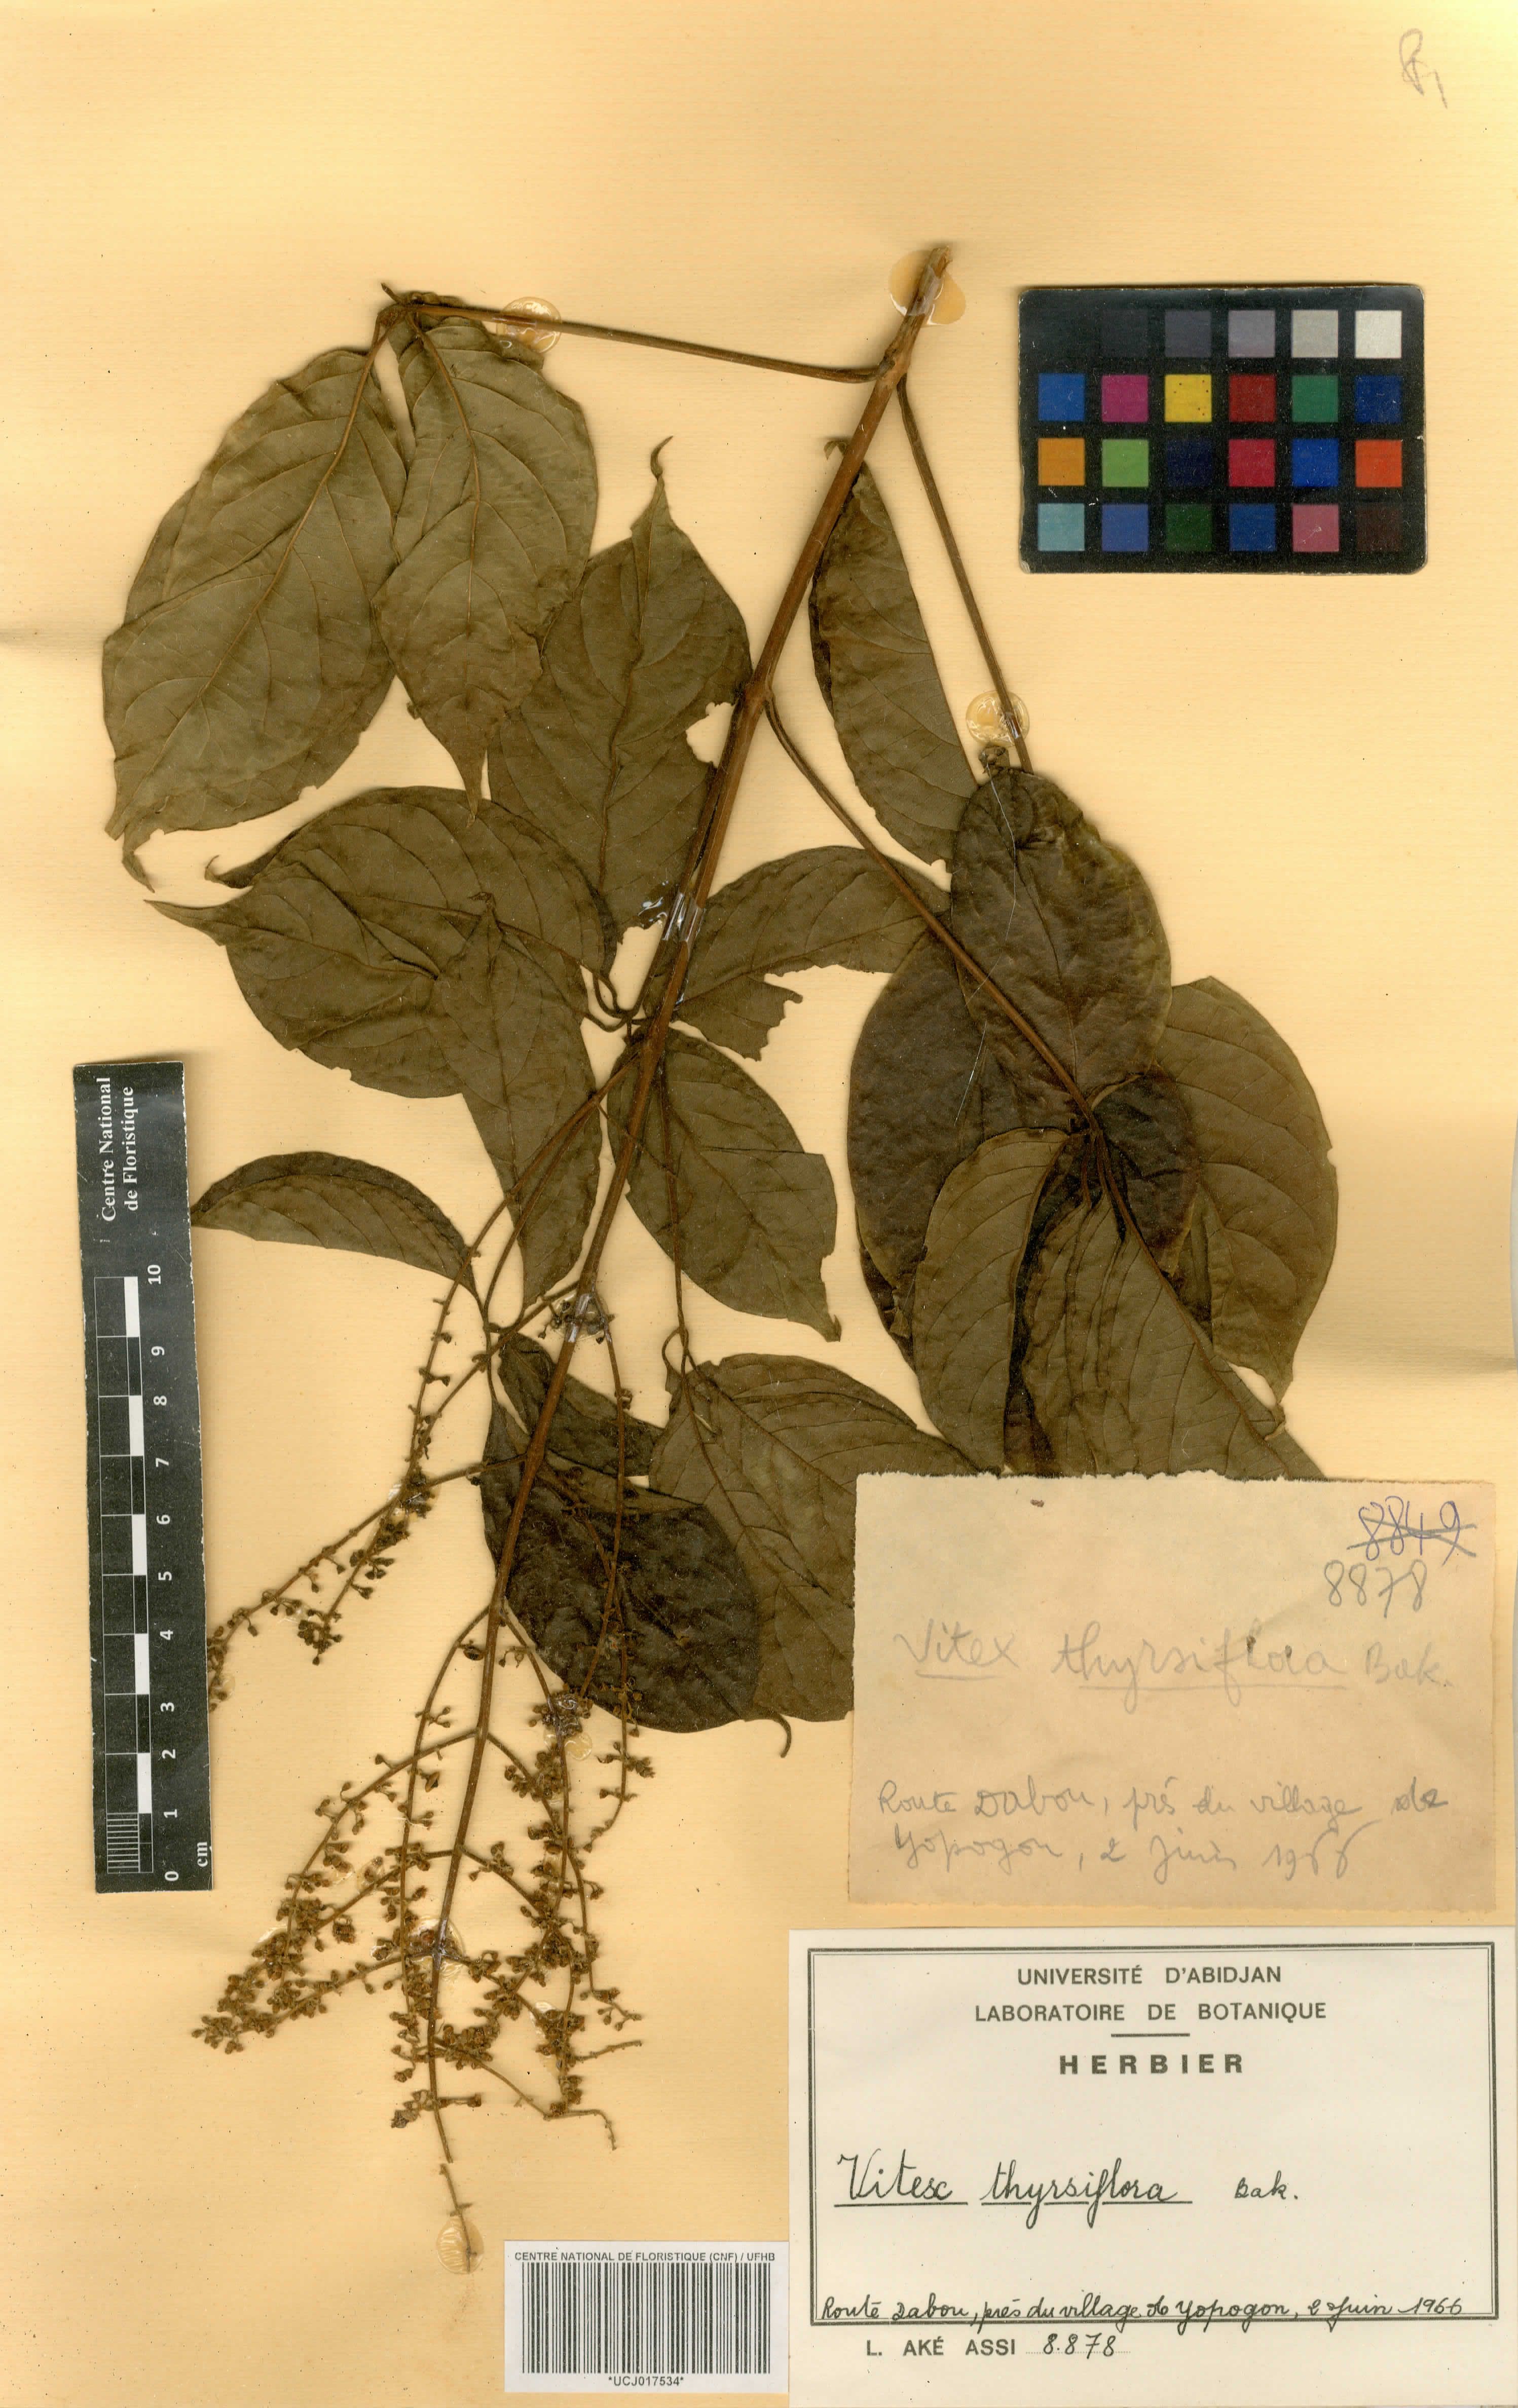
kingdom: Plantae
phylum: Tracheophyta
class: Magnoliopsida
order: Lamiales
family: Lamiaceae
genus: Vitex
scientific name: Vitex thyrsiflora
